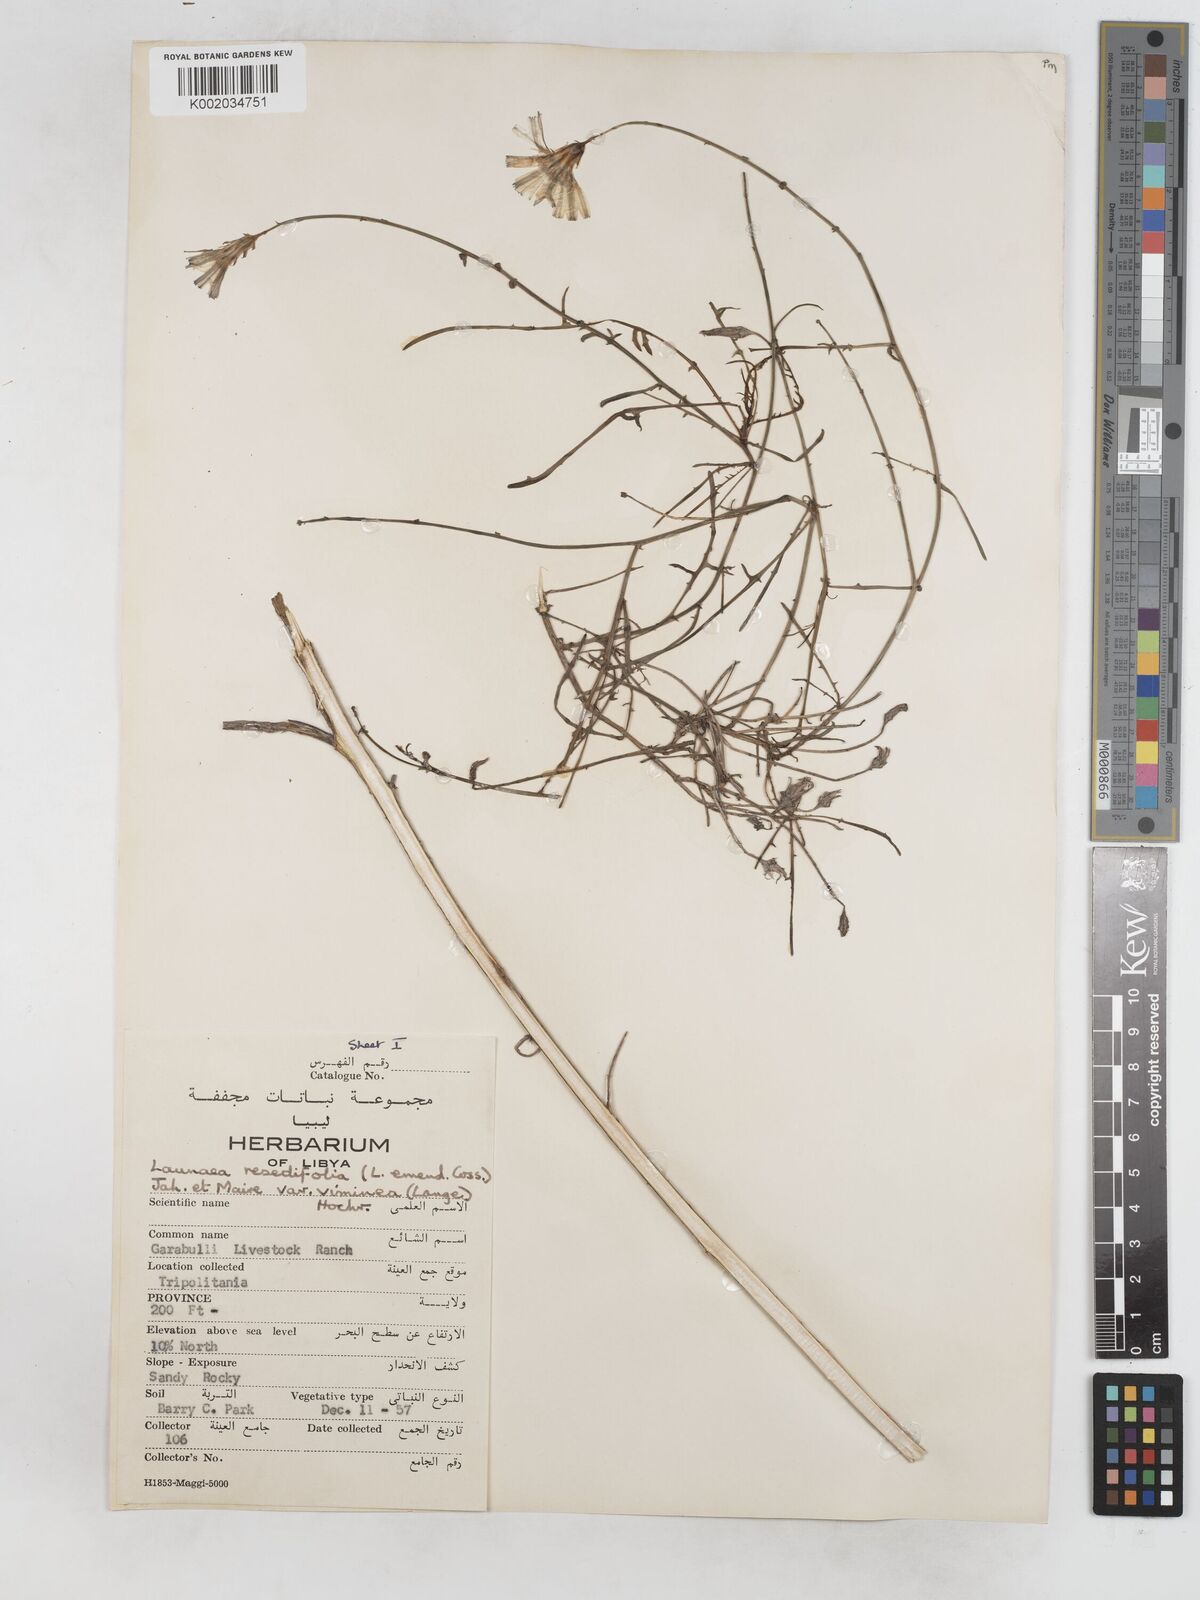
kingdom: Plantae
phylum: Tracheophyta
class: Magnoliopsida
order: Asterales
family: Asteraceae
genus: Launaea
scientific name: Launaea fragilis
